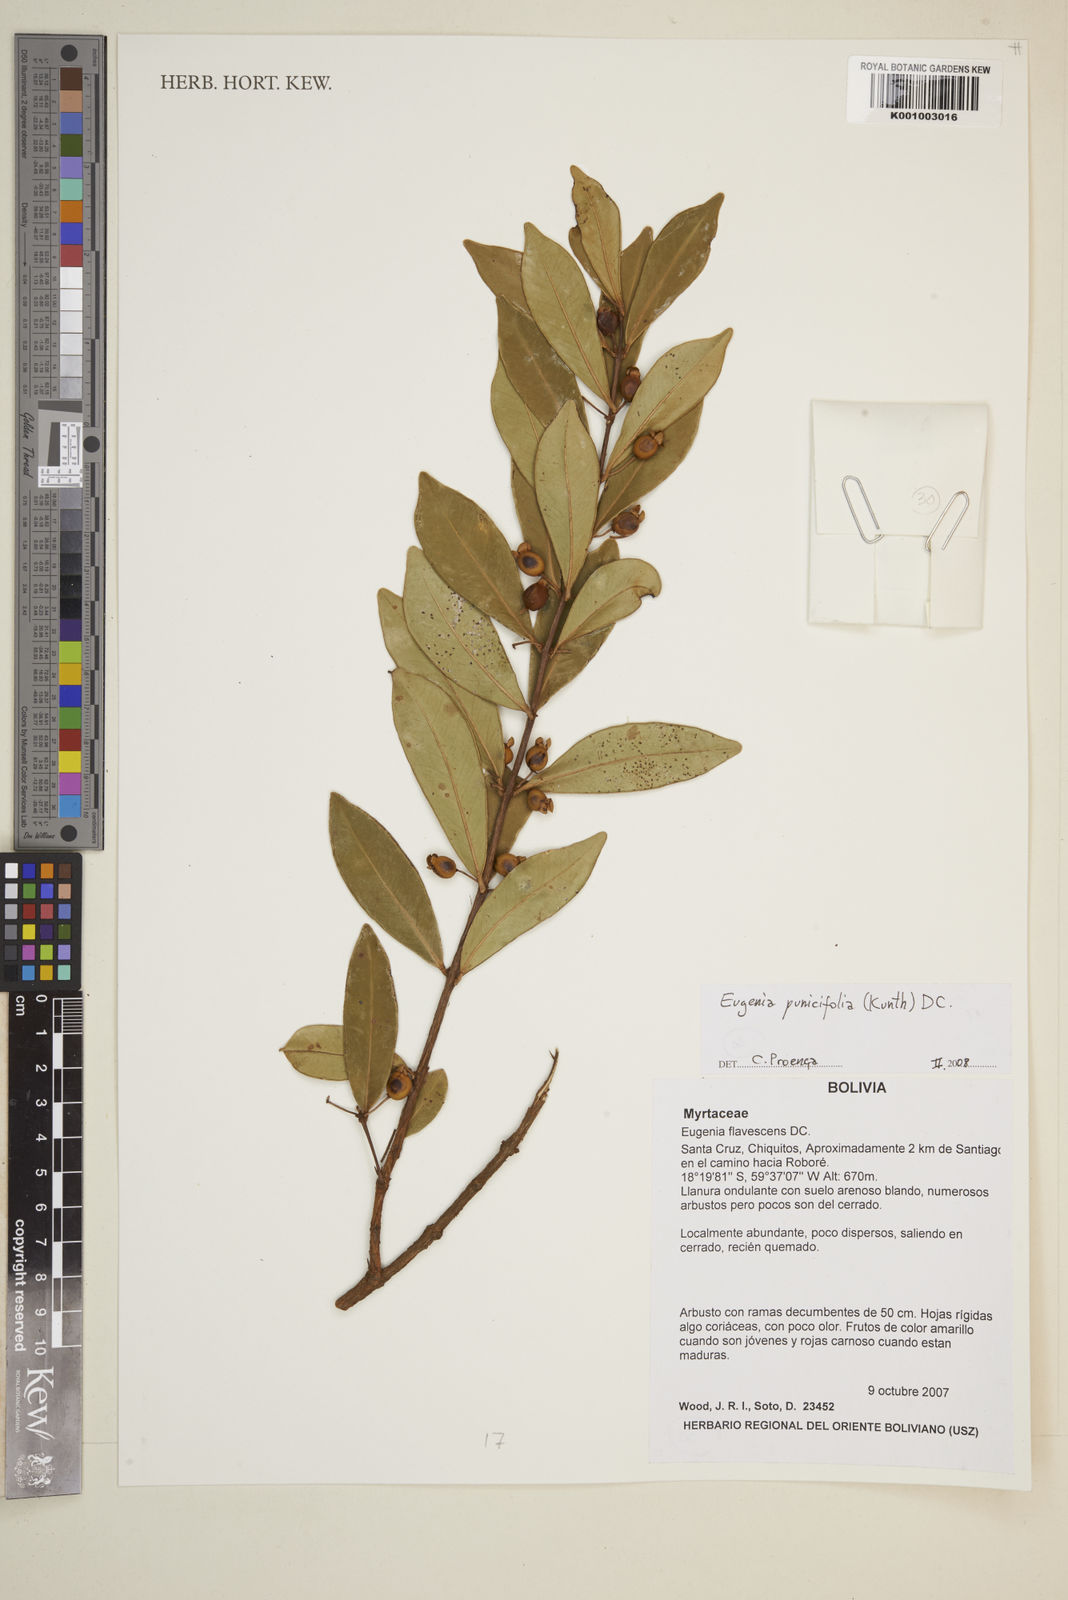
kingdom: Plantae
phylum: Tracheophyta
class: Magnoliopsida
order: Myrtales
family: Myrtaceae
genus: Eugenia
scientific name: Eugenia punicifolia
